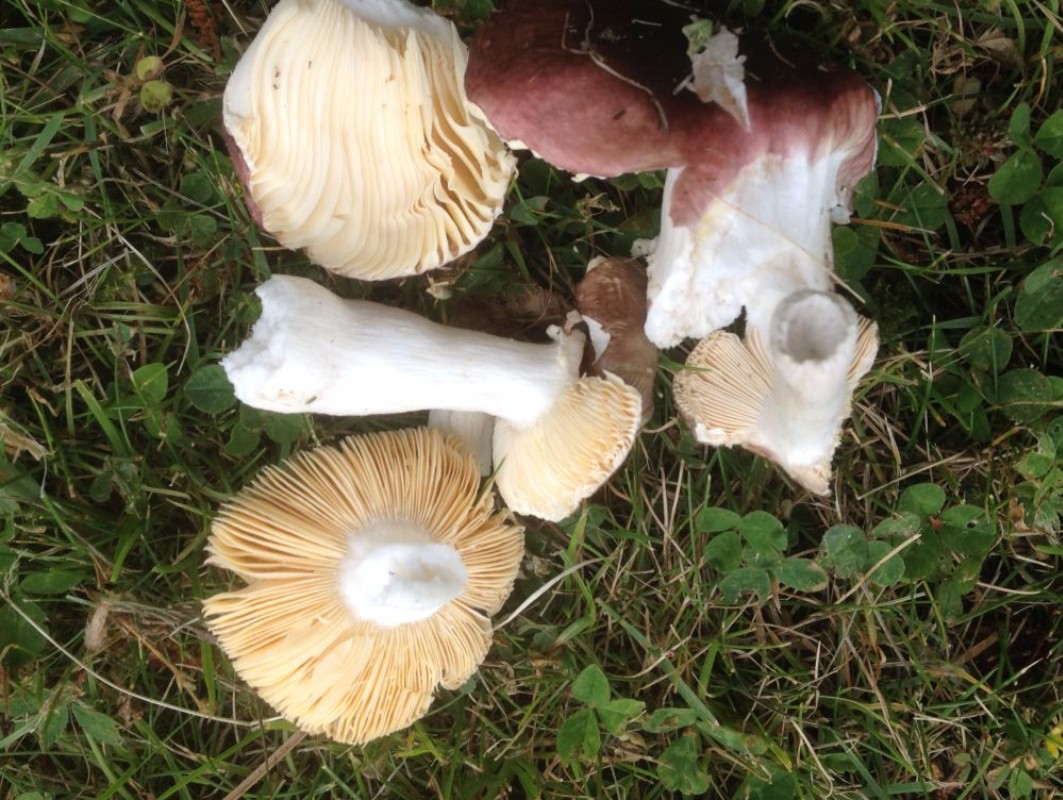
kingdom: Fungi
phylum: Basidiomycota
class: Agaricomycetes
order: Russulales
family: Russulaceae
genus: Russula
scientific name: Russula cessans
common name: fyrre-skørhat
